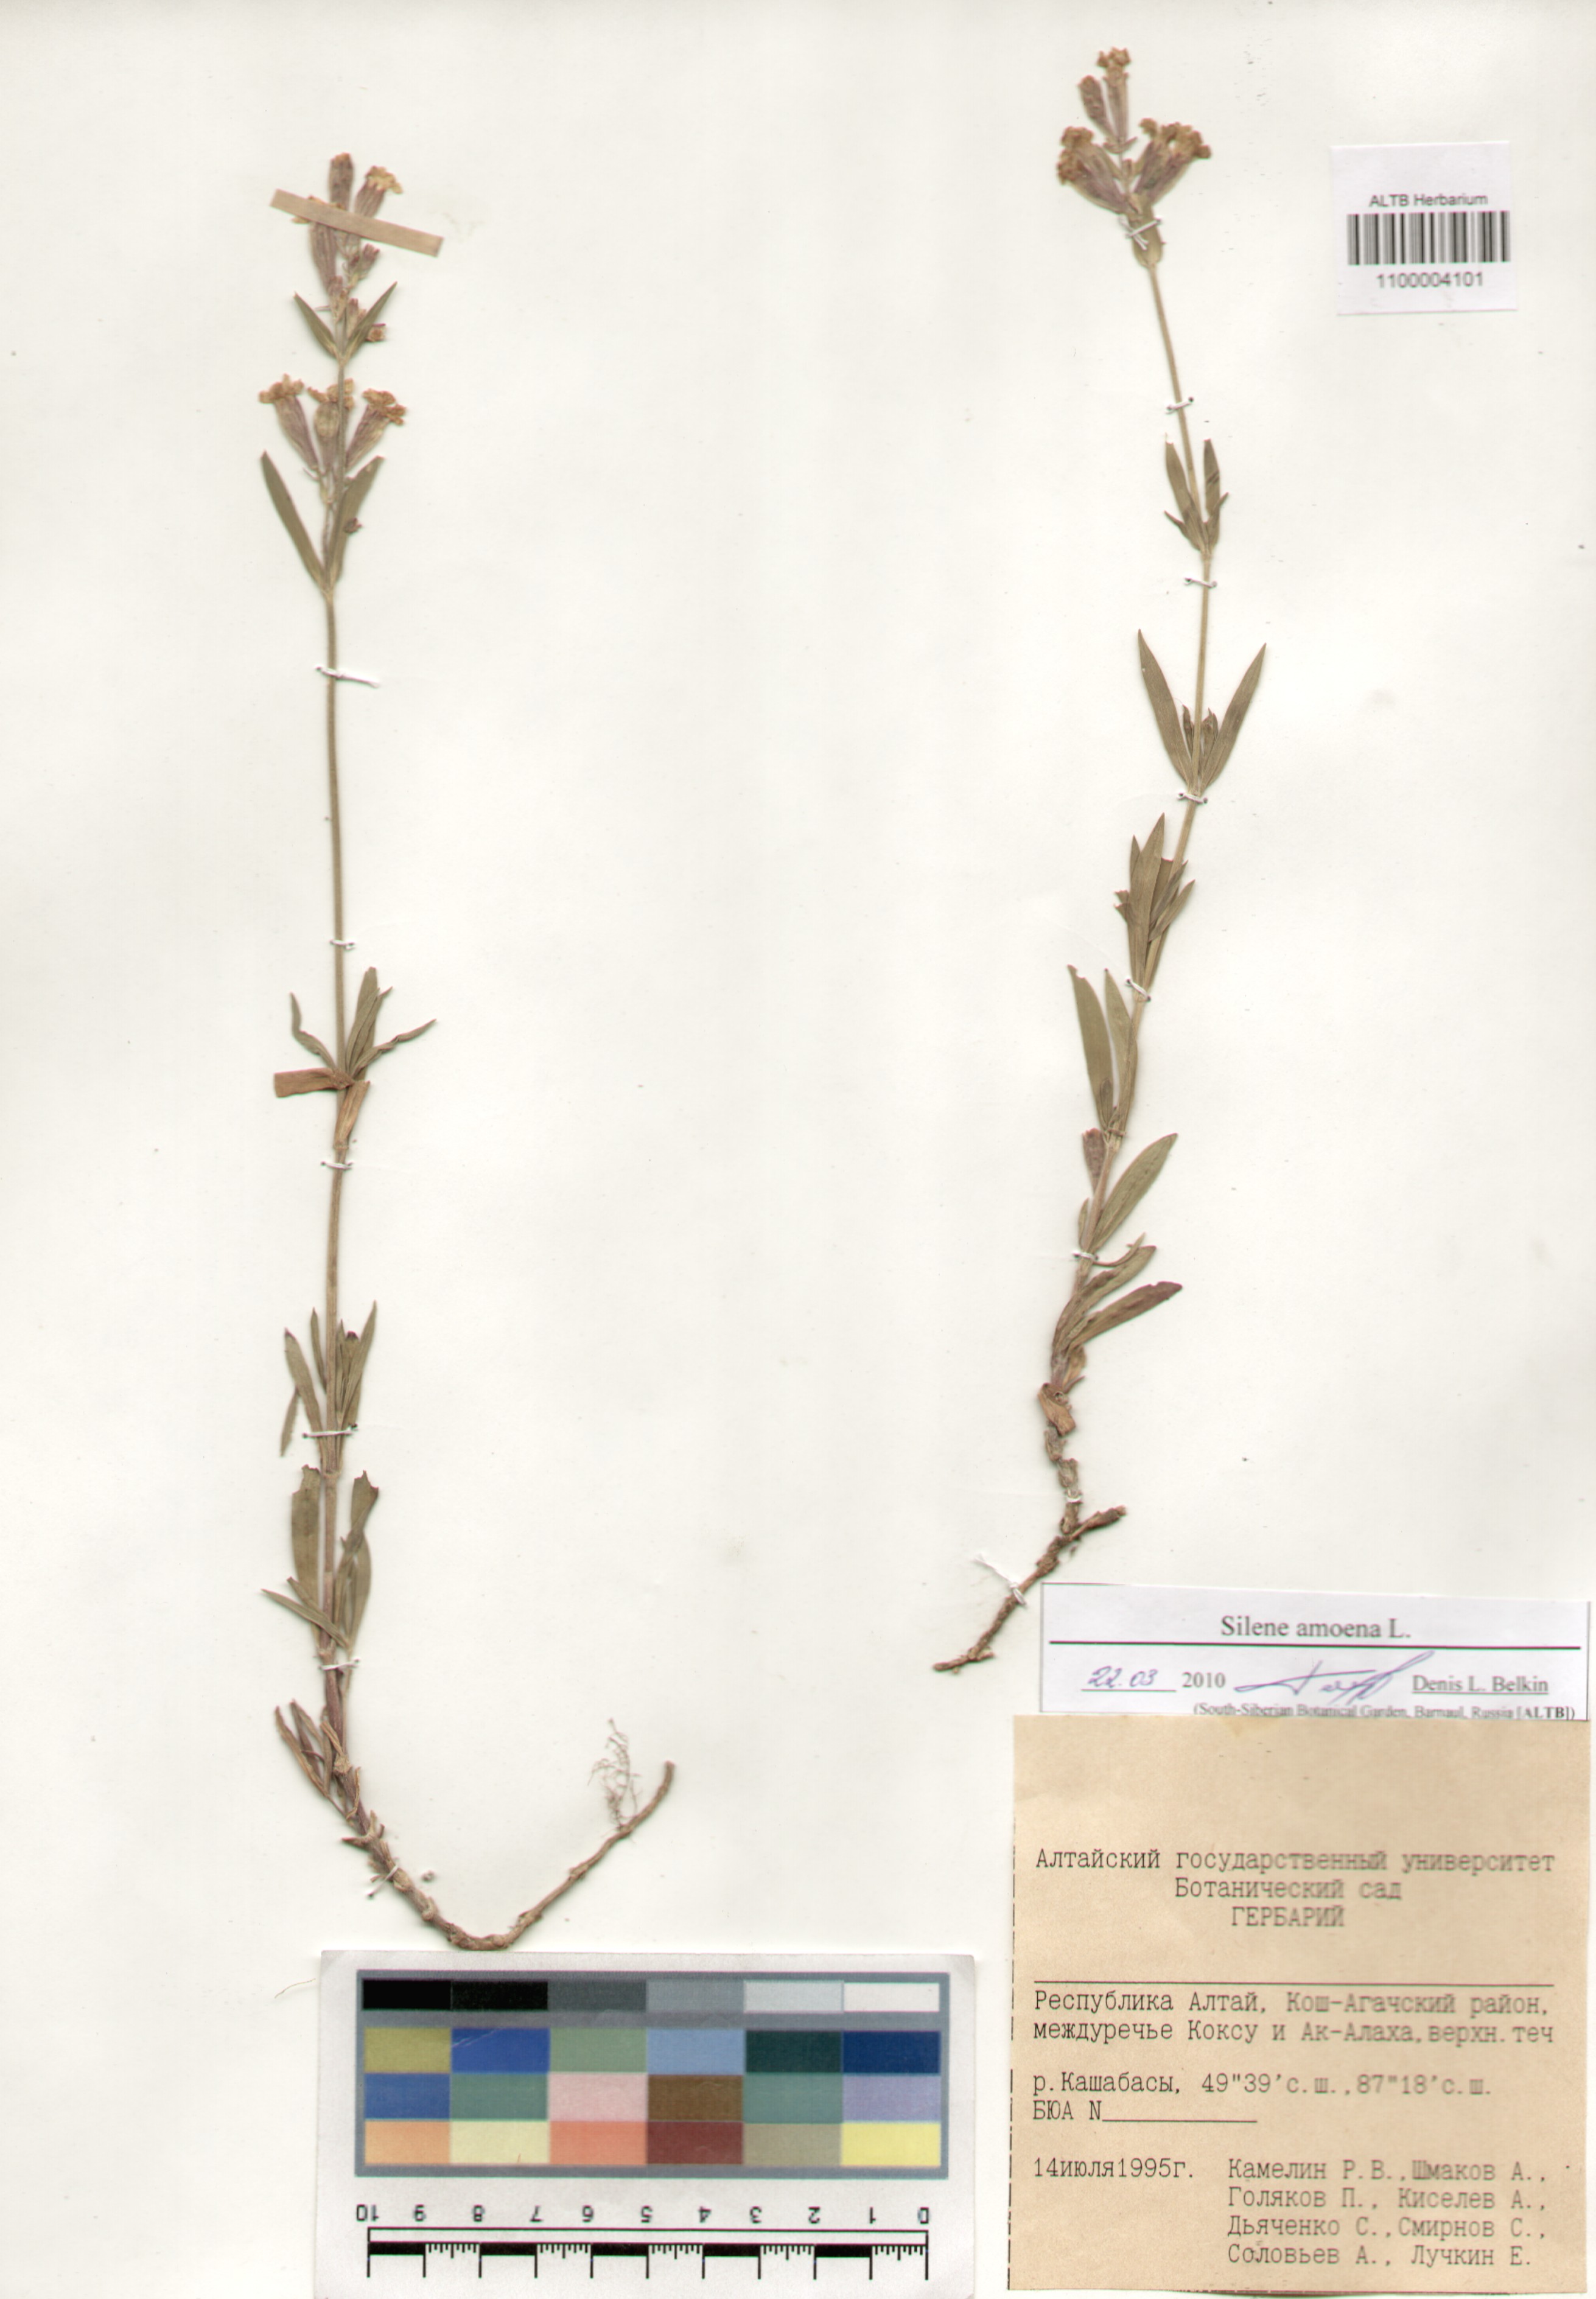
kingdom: Plantae
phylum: Tracheophyta
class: Magnoliopsida
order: Caryophyllales
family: Caryophyllaceae
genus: Silene
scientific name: Silene amoena
